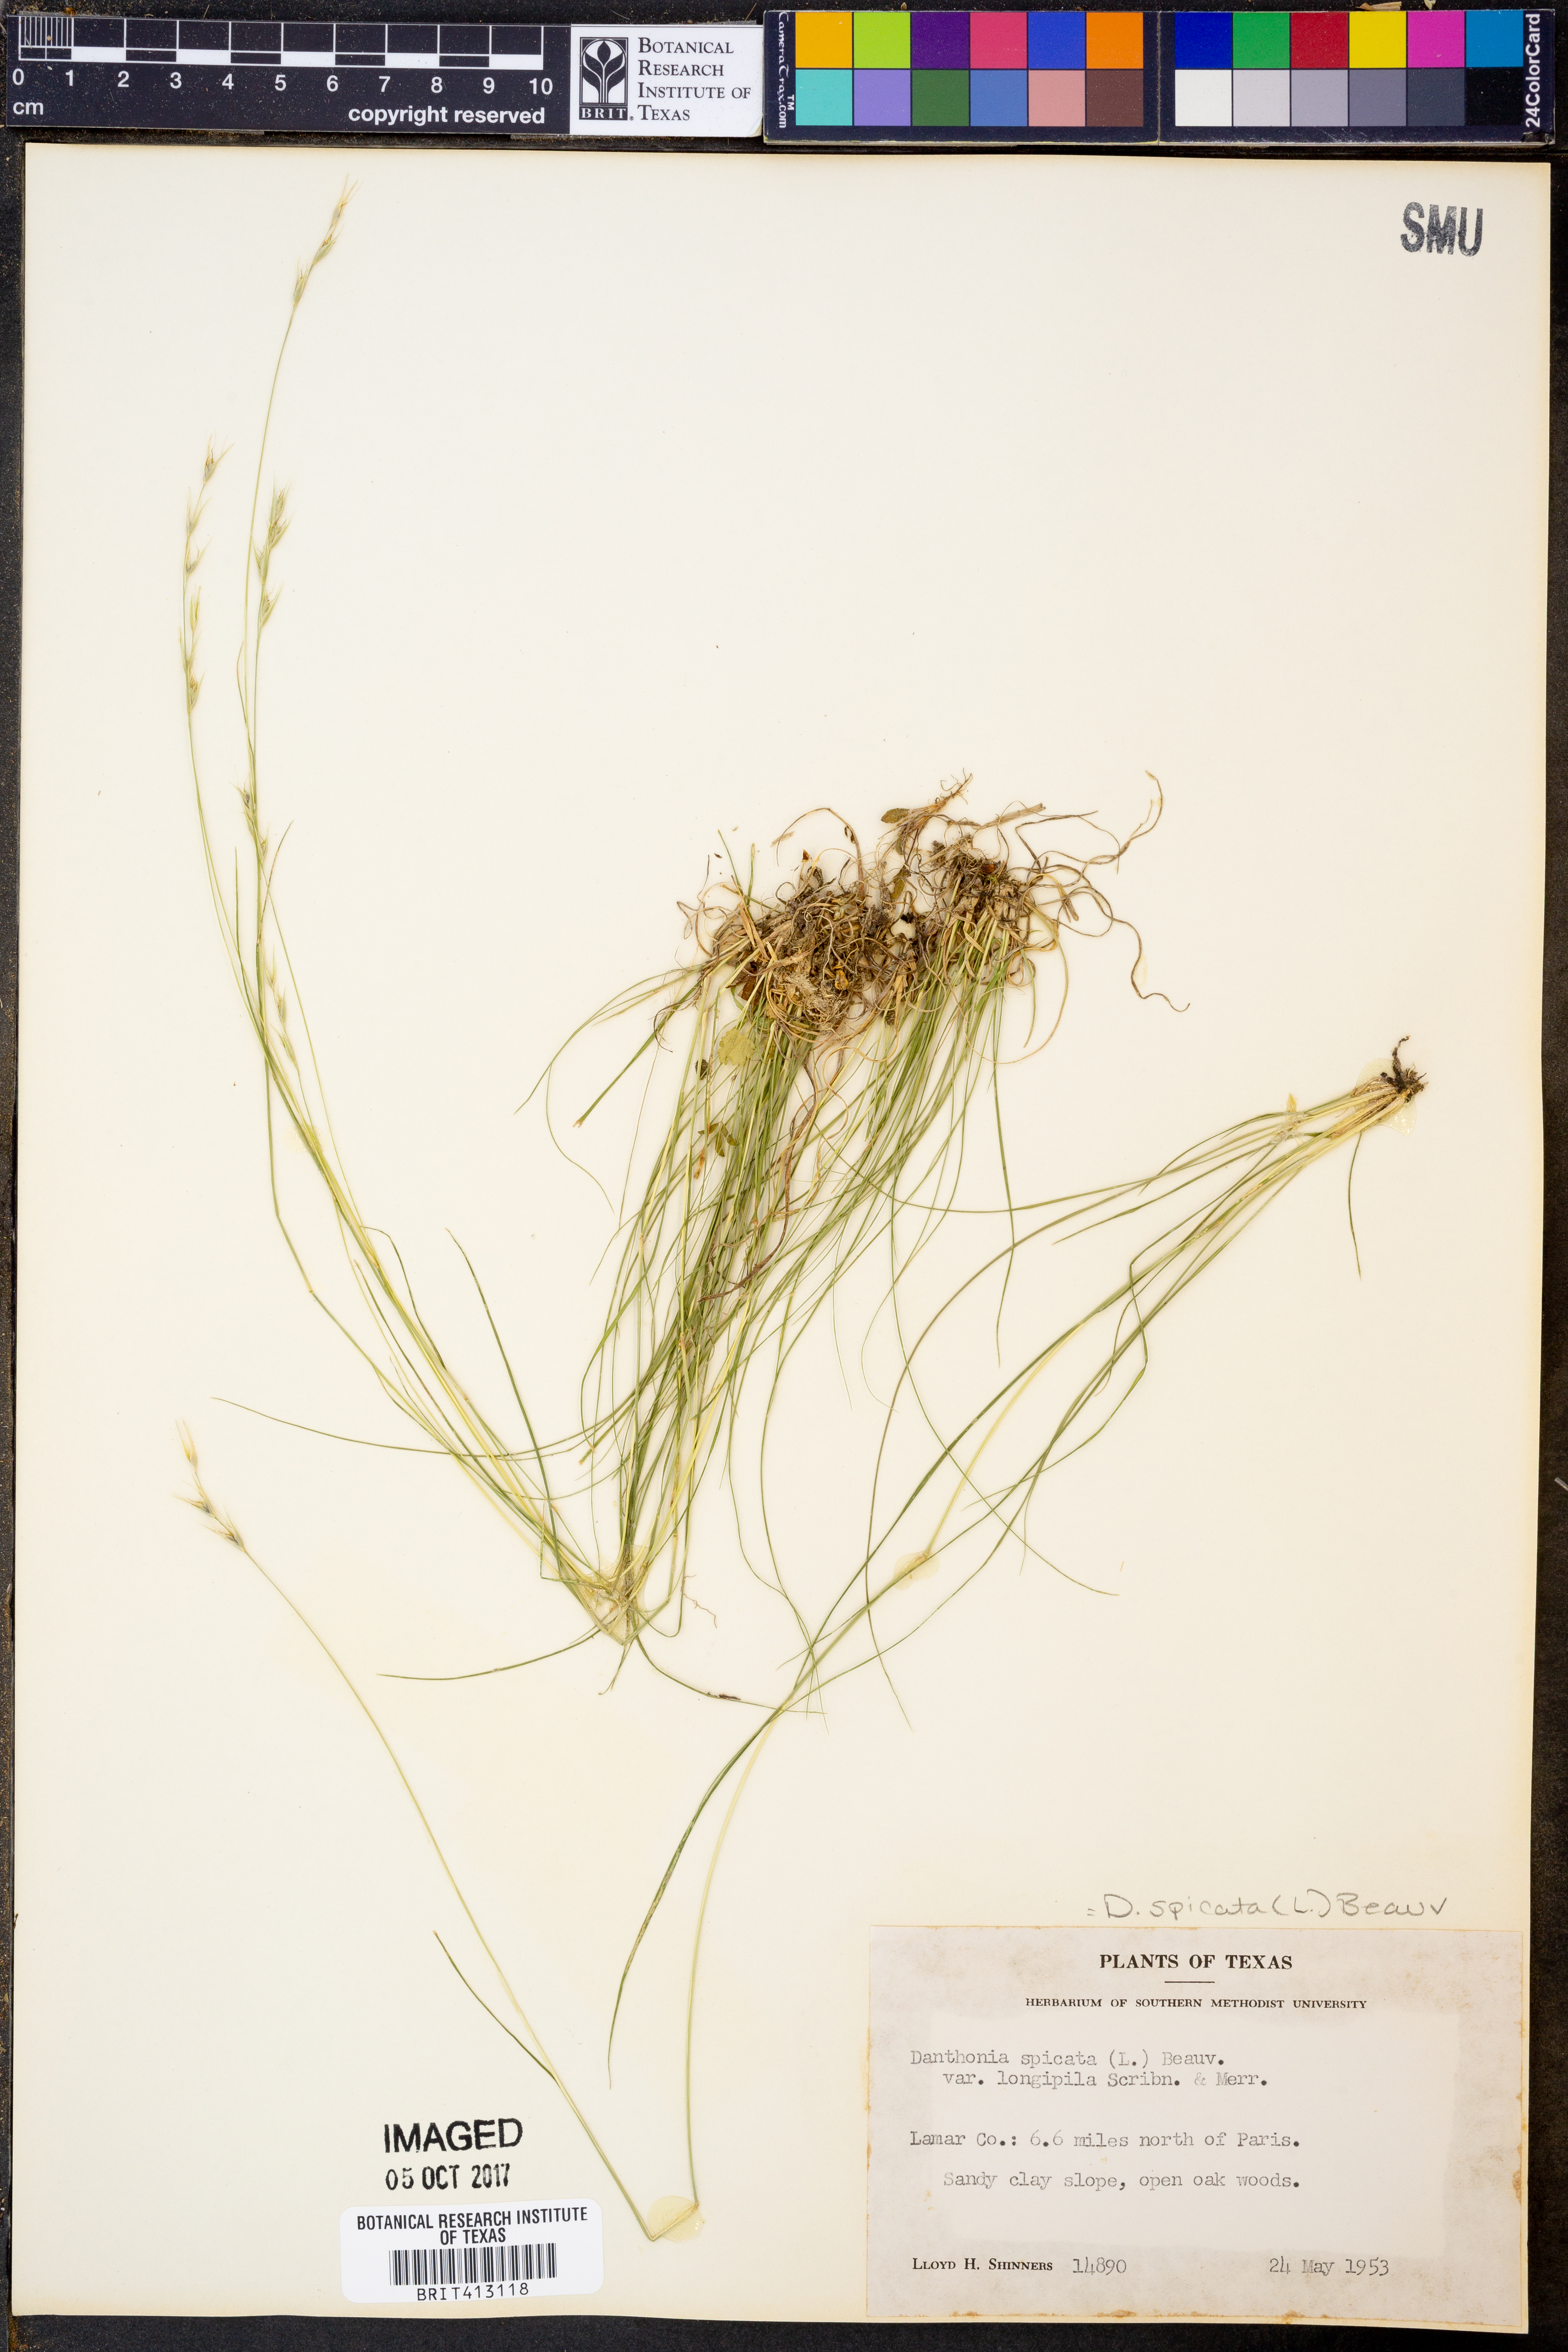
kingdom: Plantae
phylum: Tracheophyta
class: Liliopsida
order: Poales
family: Poaceae
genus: Danthonia
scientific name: Danthonia spicata
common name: Common wild oatgrass
